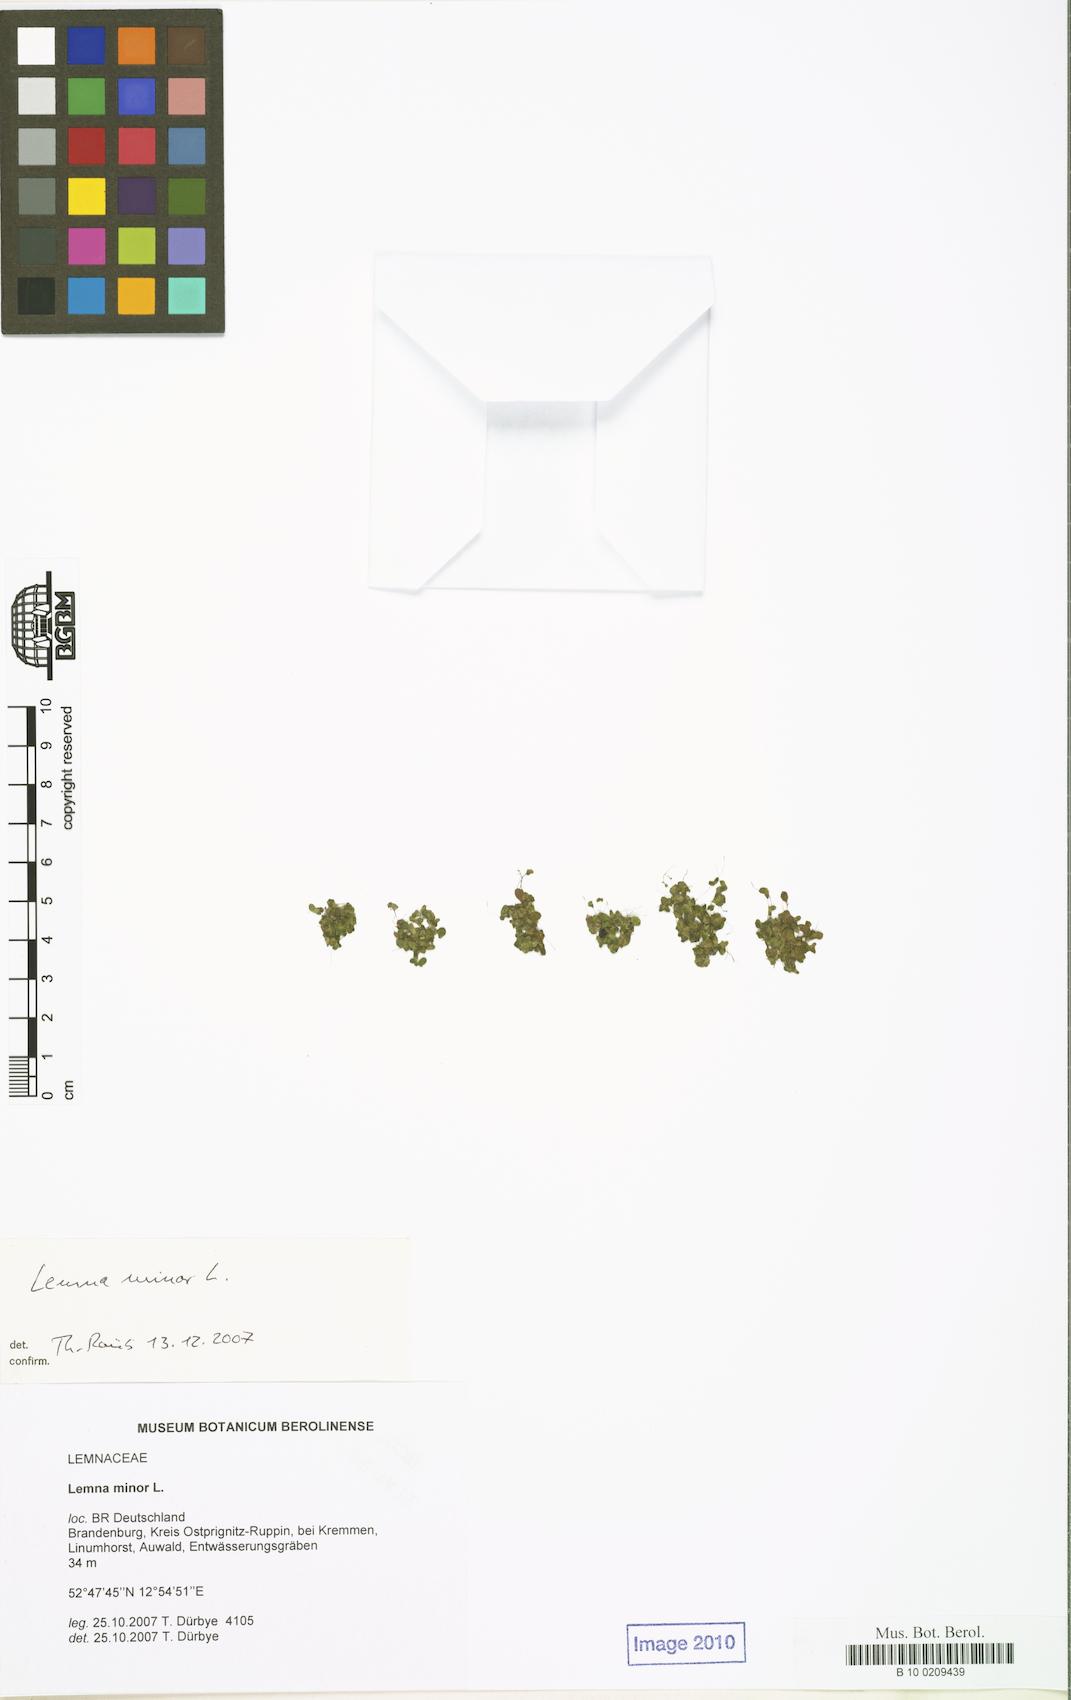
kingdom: Plantae
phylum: Tracheophyta
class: Liliopsida
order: Alismatales
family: Araceae
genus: Lemna
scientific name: Lemna minor
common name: Common duckweed
